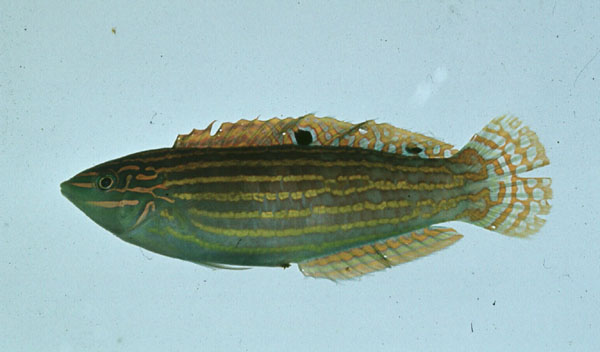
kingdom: Animalia
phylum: Chordata
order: Perciformes
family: Labridae
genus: Halichoeres
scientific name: Halichoeres cosmetus
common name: Adorned wrasse
